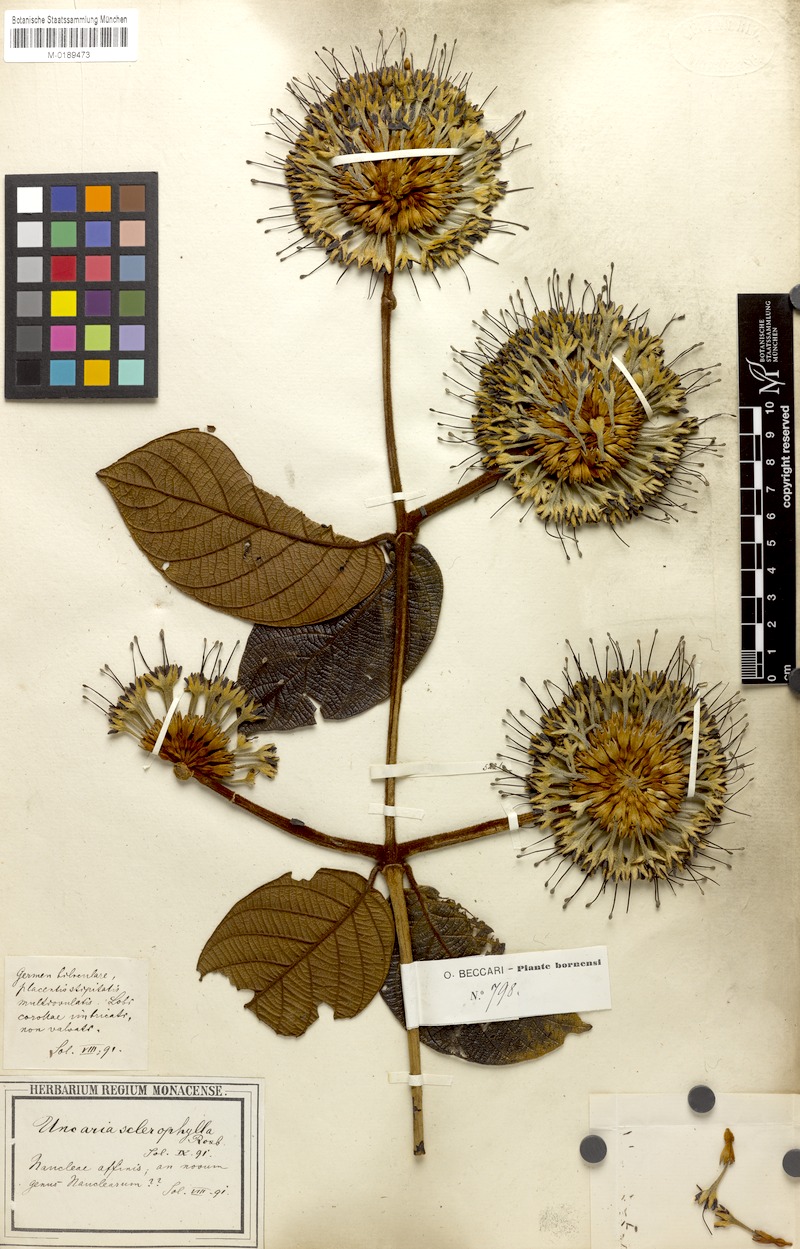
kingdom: Plantae
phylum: Tracheophyta
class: Magnoliopsida
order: Gentianales
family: Rubiaceae
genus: Uncaria
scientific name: Uncaria cordata
